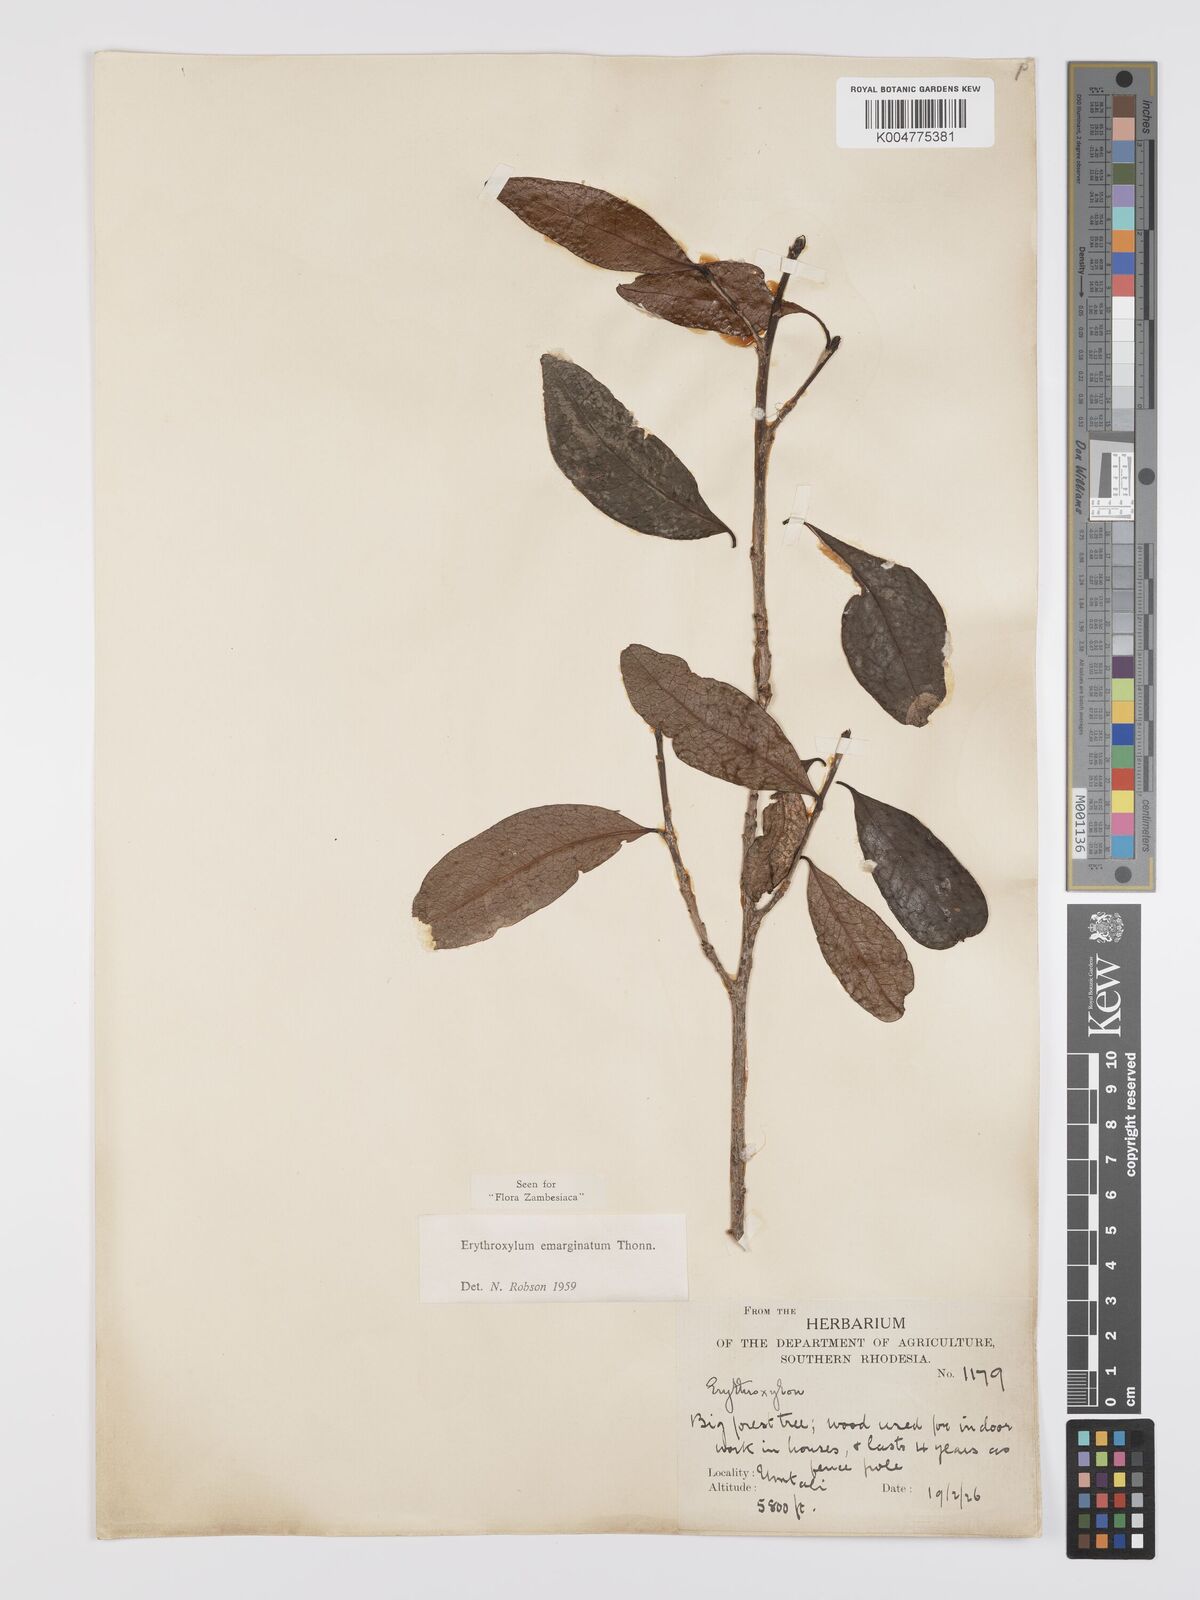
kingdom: Plantae
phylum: Tracheophyta
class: Magnoliopsida
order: Malpighiales
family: Erythroxylaceae
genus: Erythroxylum
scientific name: Erythroxylum emarginatum
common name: African coca-tree
